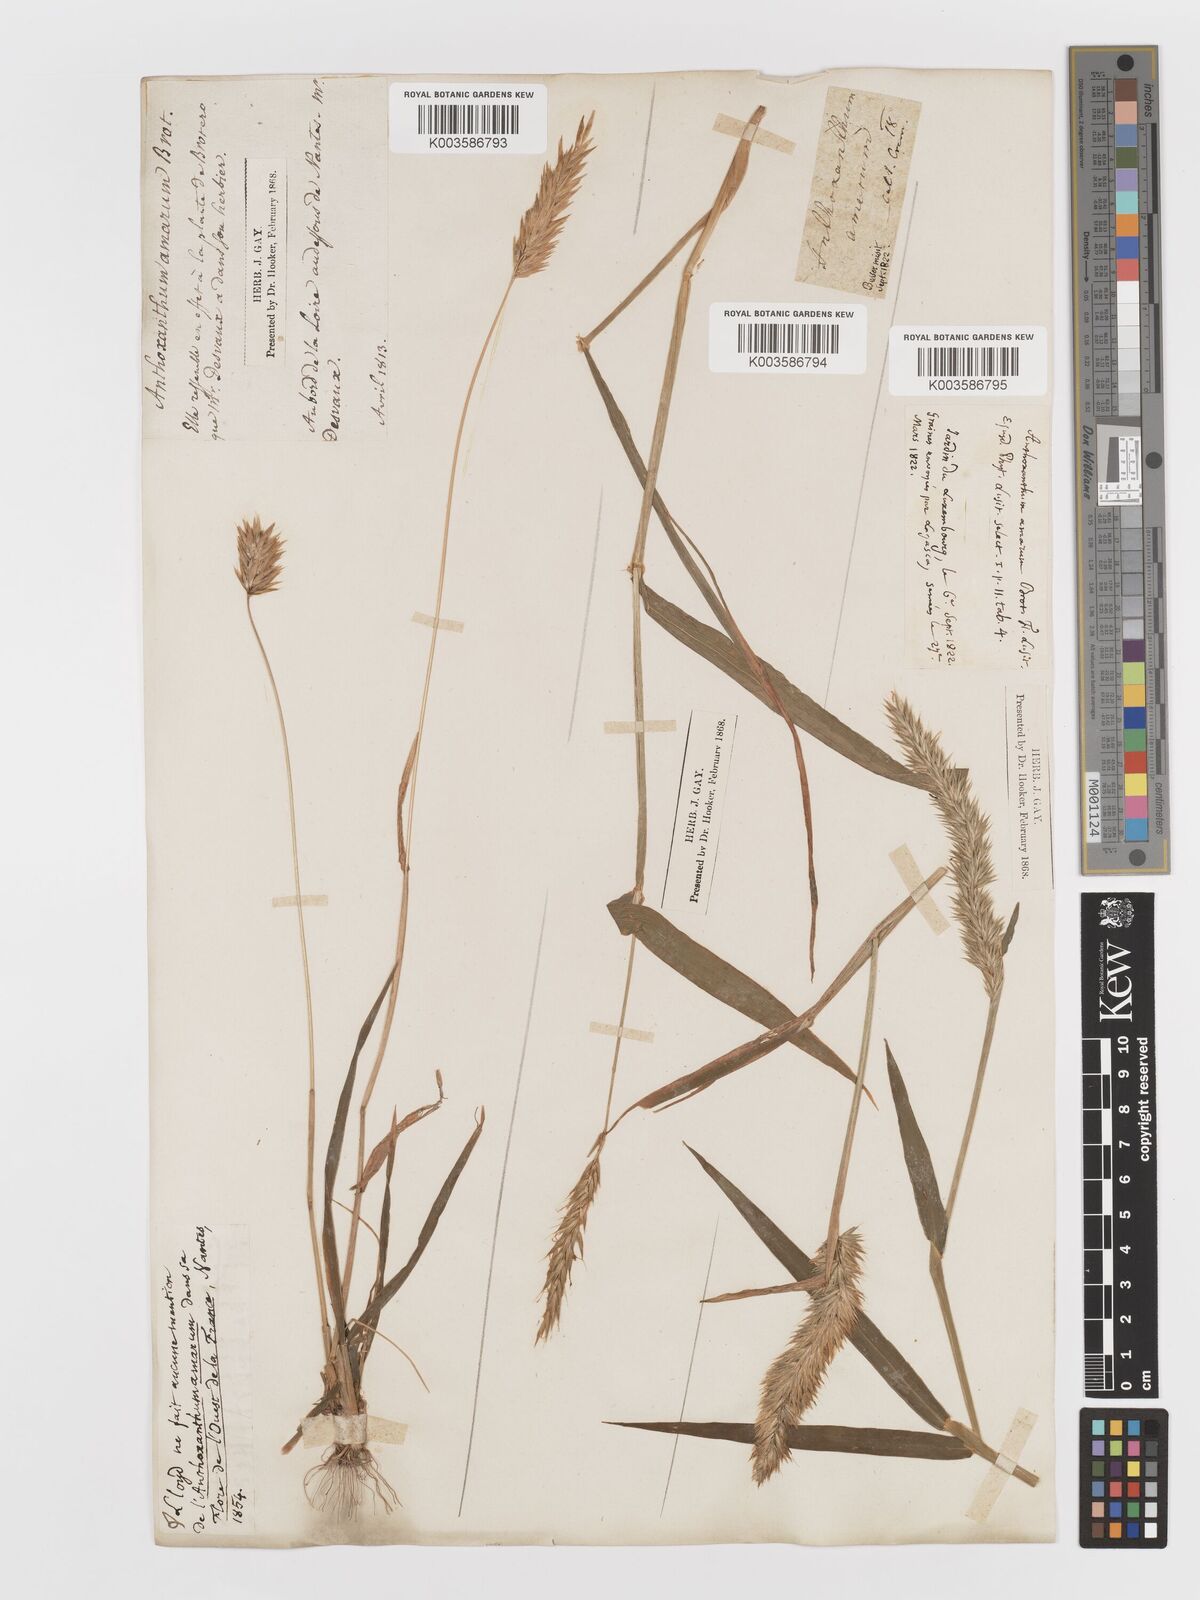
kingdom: Plantae
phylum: Tracheophyta
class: Liliopsida
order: Poales
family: Poaceae
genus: Anthoxanthum
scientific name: Anthoxanthum amarum
